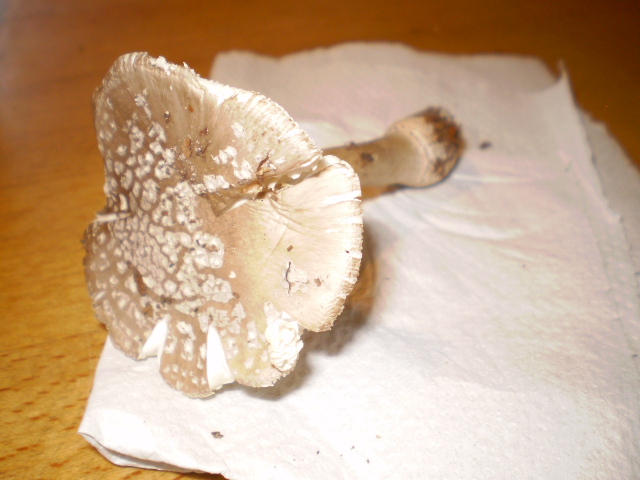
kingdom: Fungi
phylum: Basidiomycota
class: Agaricomycetes
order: Agaricales
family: Amanitaceae
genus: Amanita
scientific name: Amanita
